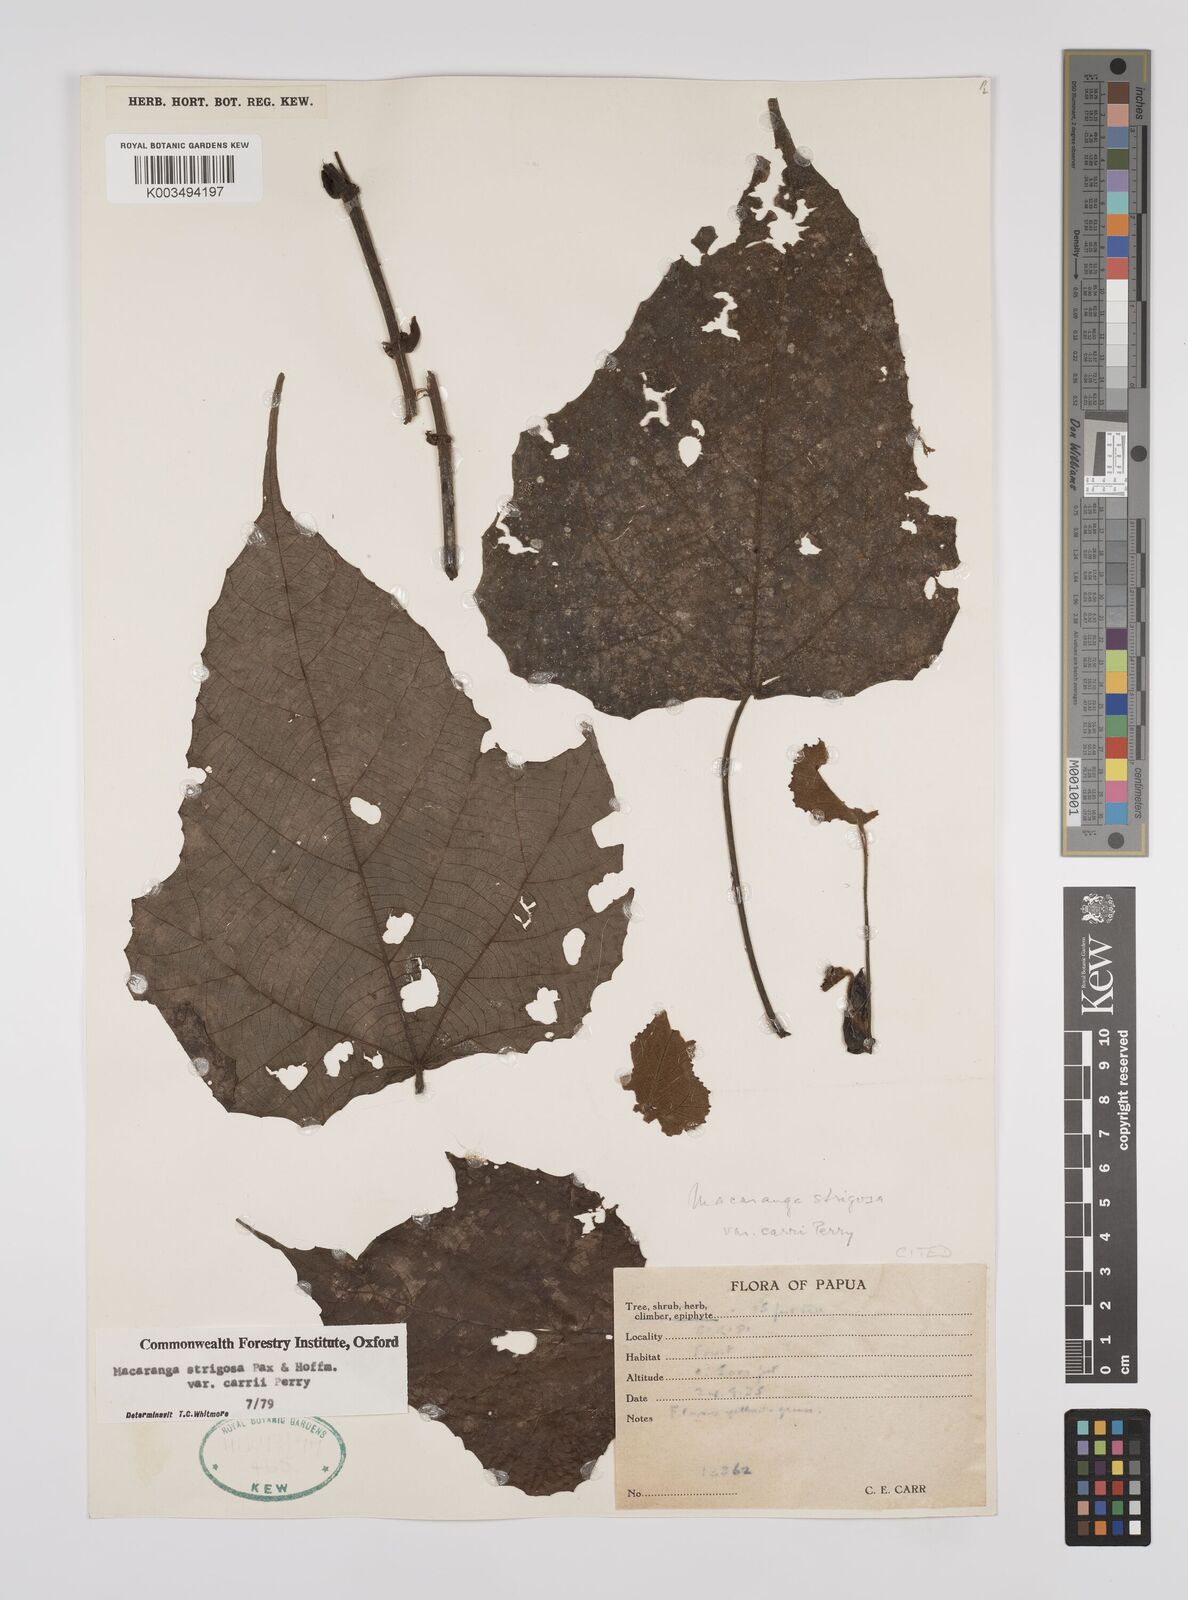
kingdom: Plantae
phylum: Tracheophyta
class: Magnoliopsida
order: Malpighiales
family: Euphorbiaceae
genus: Macaranga
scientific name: Macaranga strigosa
